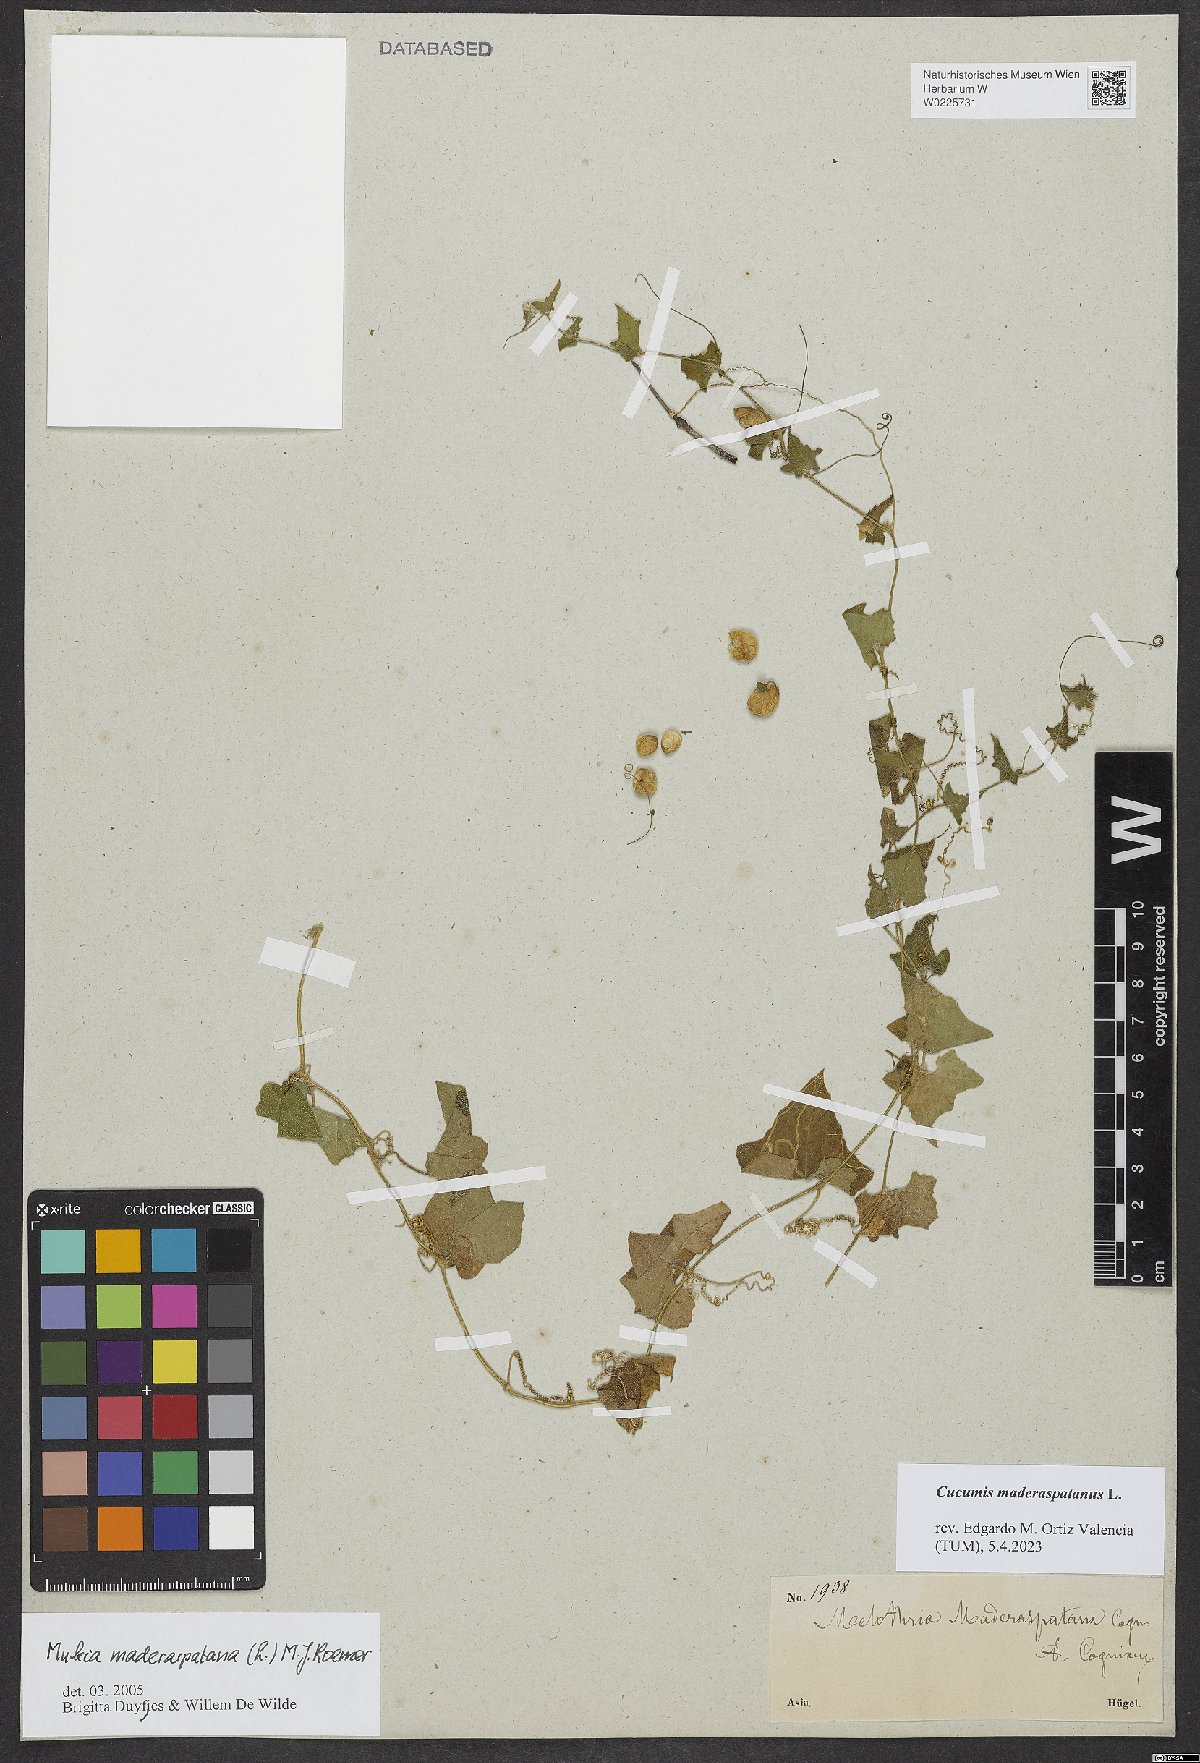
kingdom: Plantae
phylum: Tracheophyta
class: Magnoliopsida
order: Cucurbitales
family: Cucurbitaceae
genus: Cucumis
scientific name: Cucumis maderaspatanus
